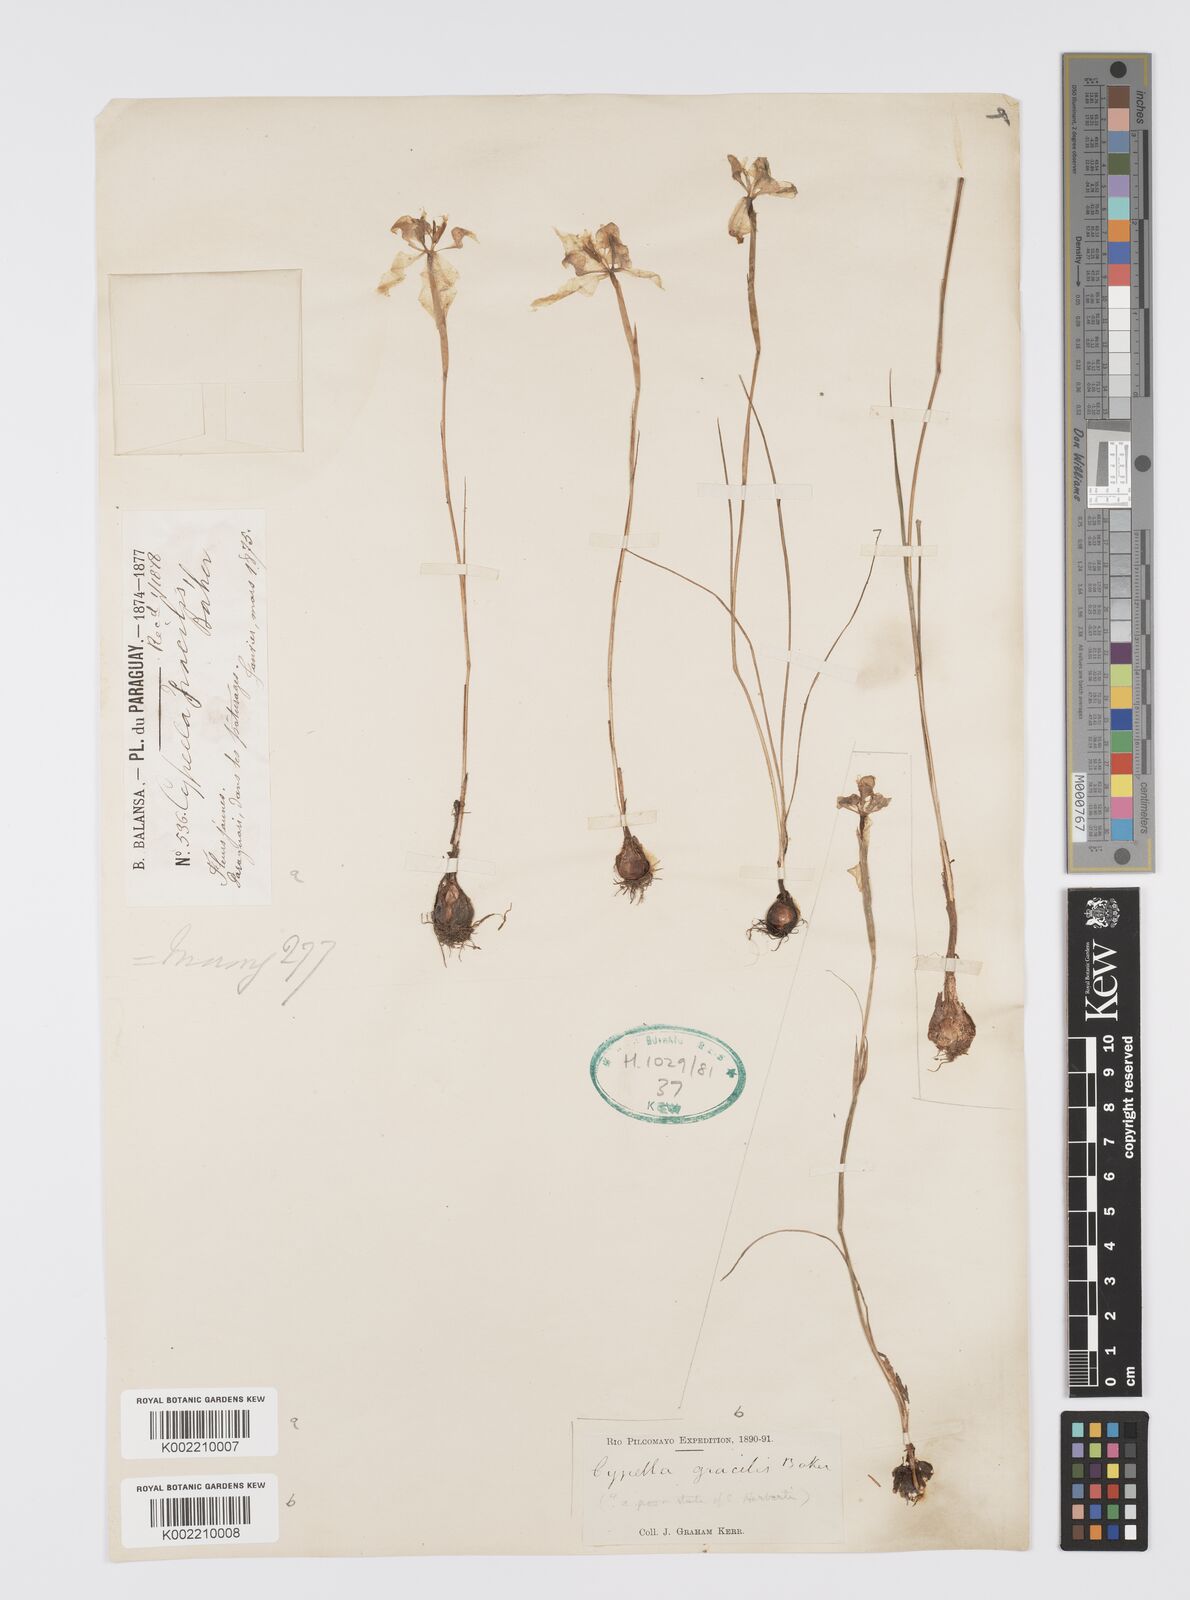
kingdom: Plantae
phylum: Tracheophyta
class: Liliopsida
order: Asparagales
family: Iridaceae
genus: Trimezia
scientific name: Trimezia gracilis
